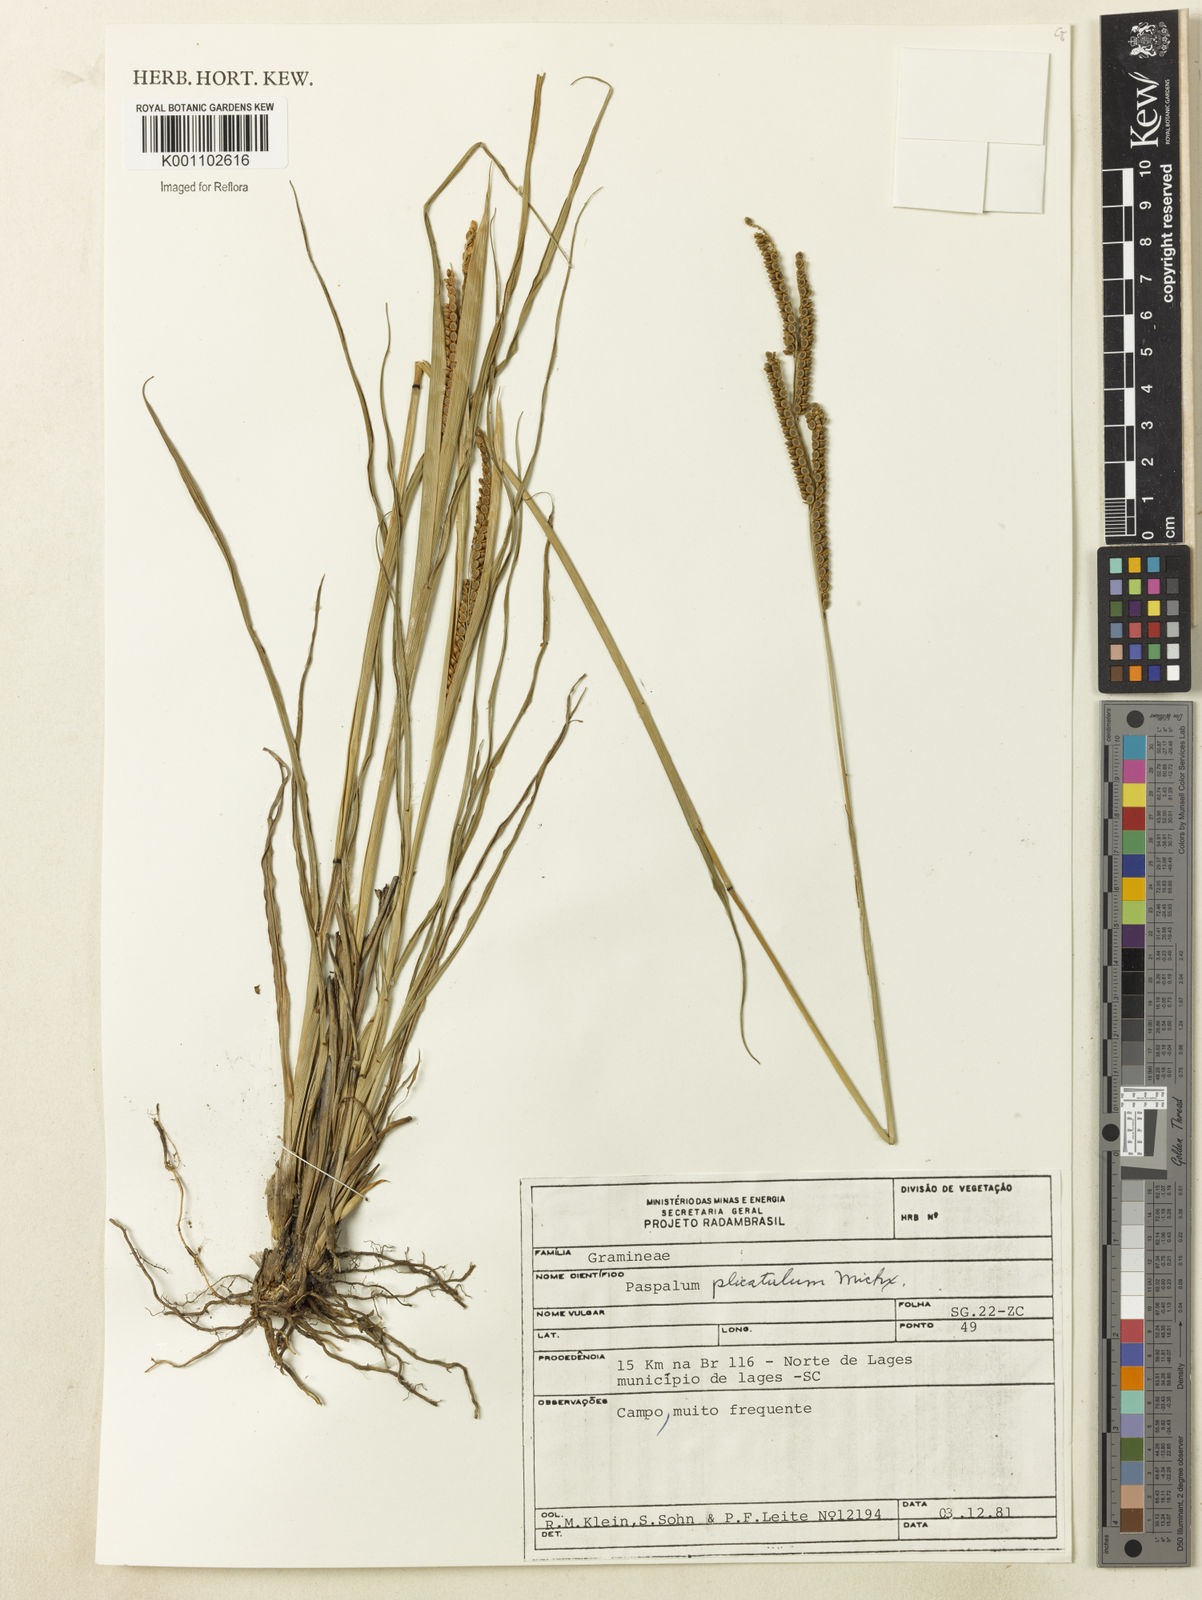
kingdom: Plantae
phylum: Tracheophyta
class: Liliopsida
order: Poales
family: Poaceae
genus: Paspalum
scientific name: Paspalum
